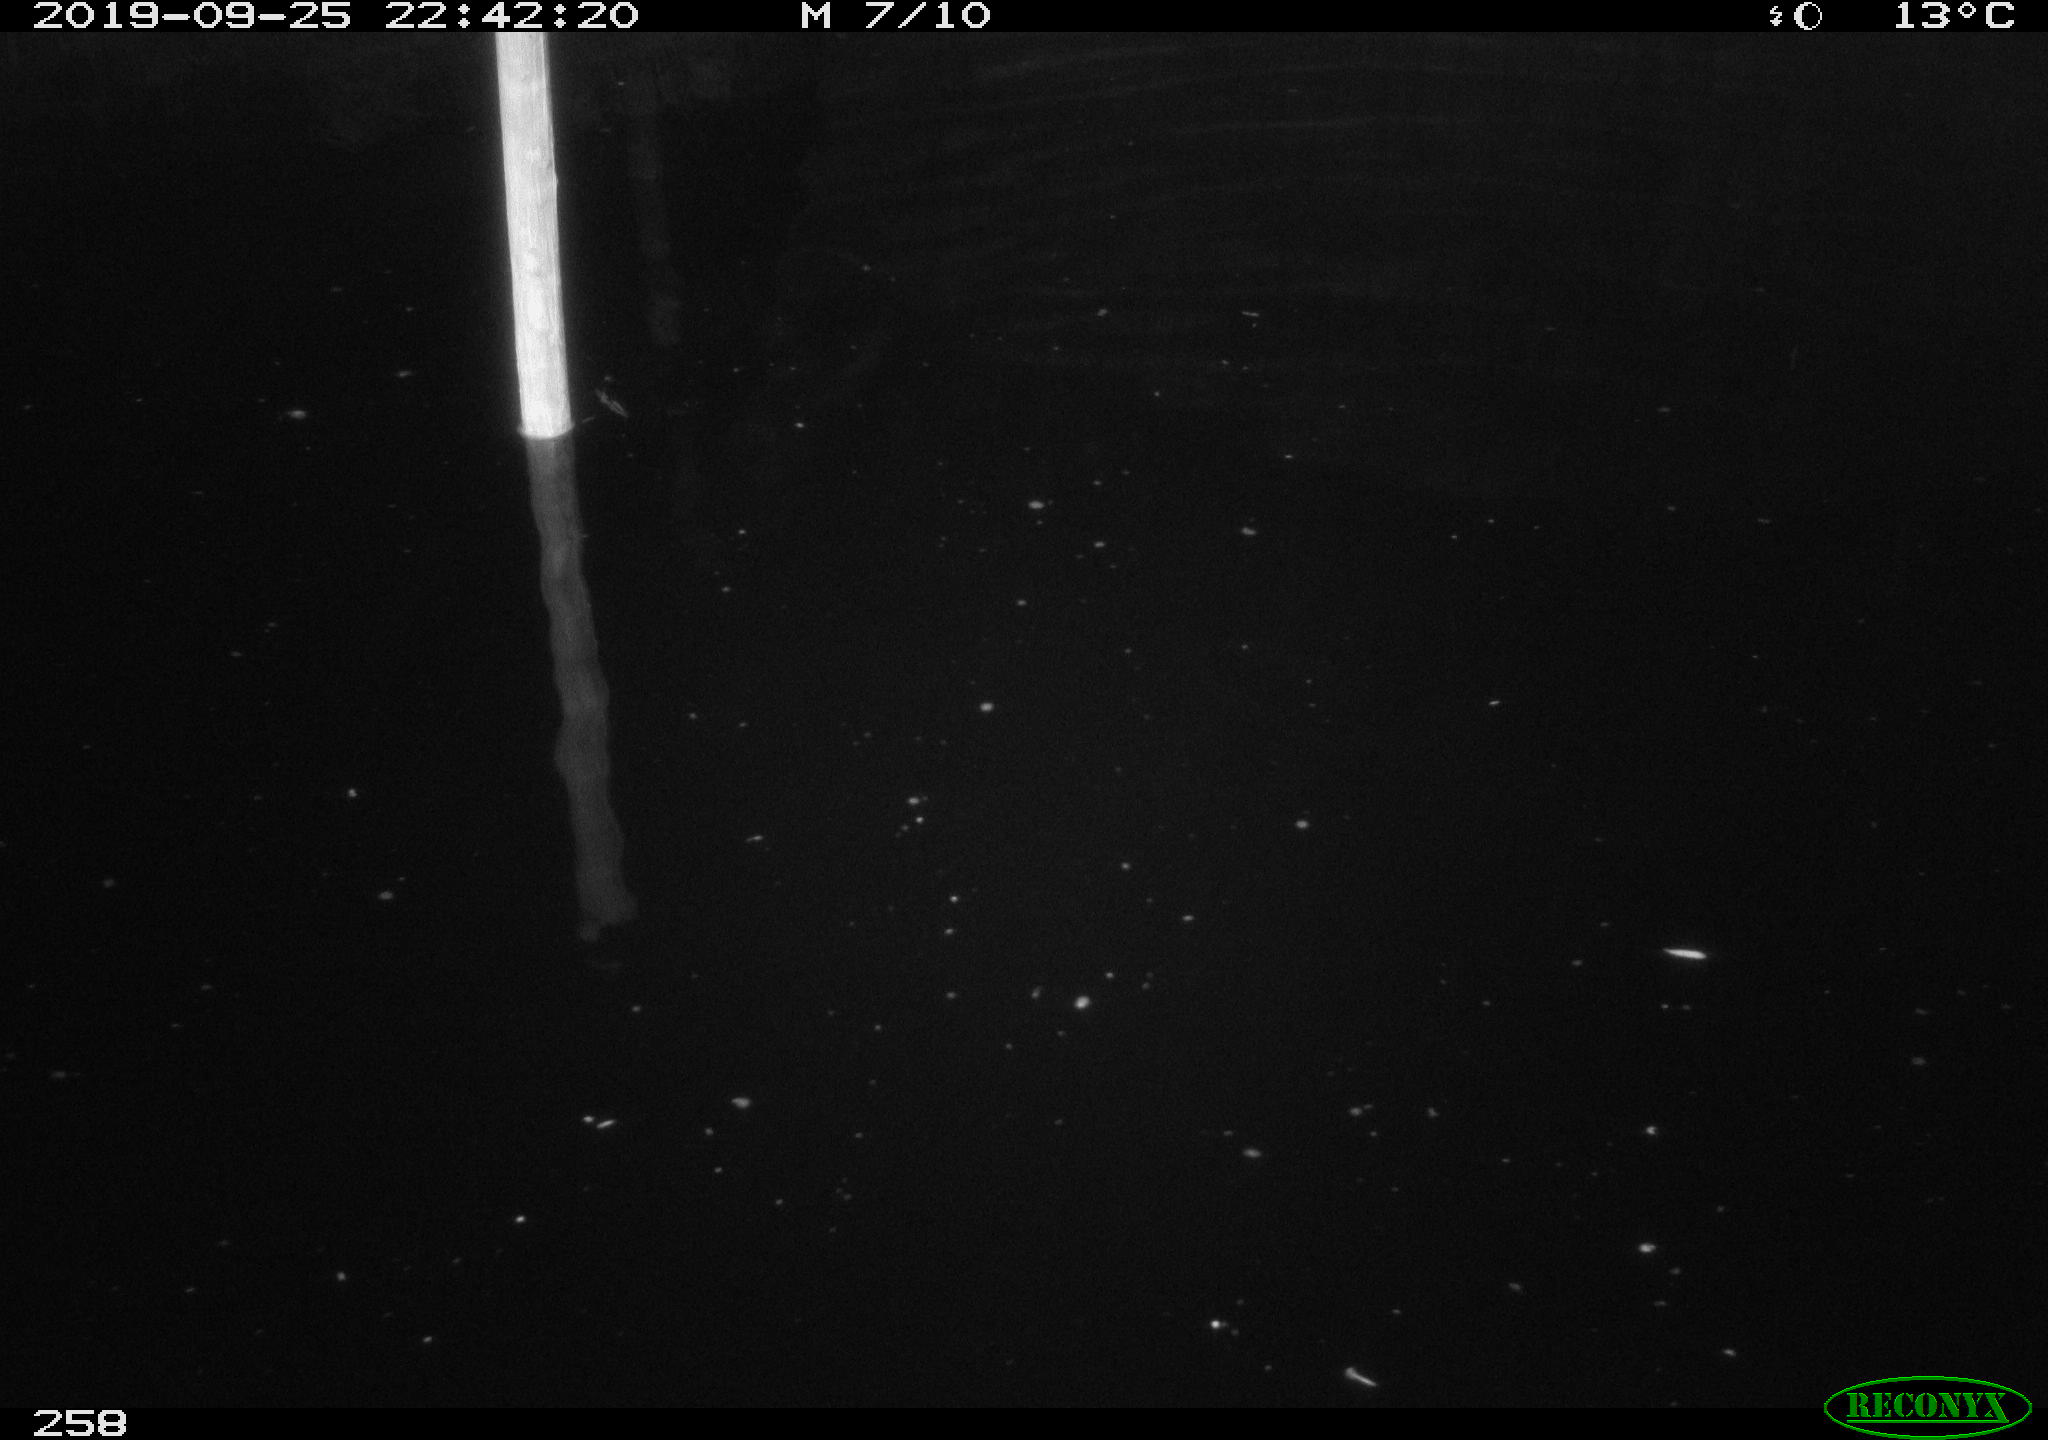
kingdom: Animalia
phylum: Chordata
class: Aves
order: Anseriformes
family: Anatidae
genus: Anas
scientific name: Anas platyrhynchos
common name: Mallard
